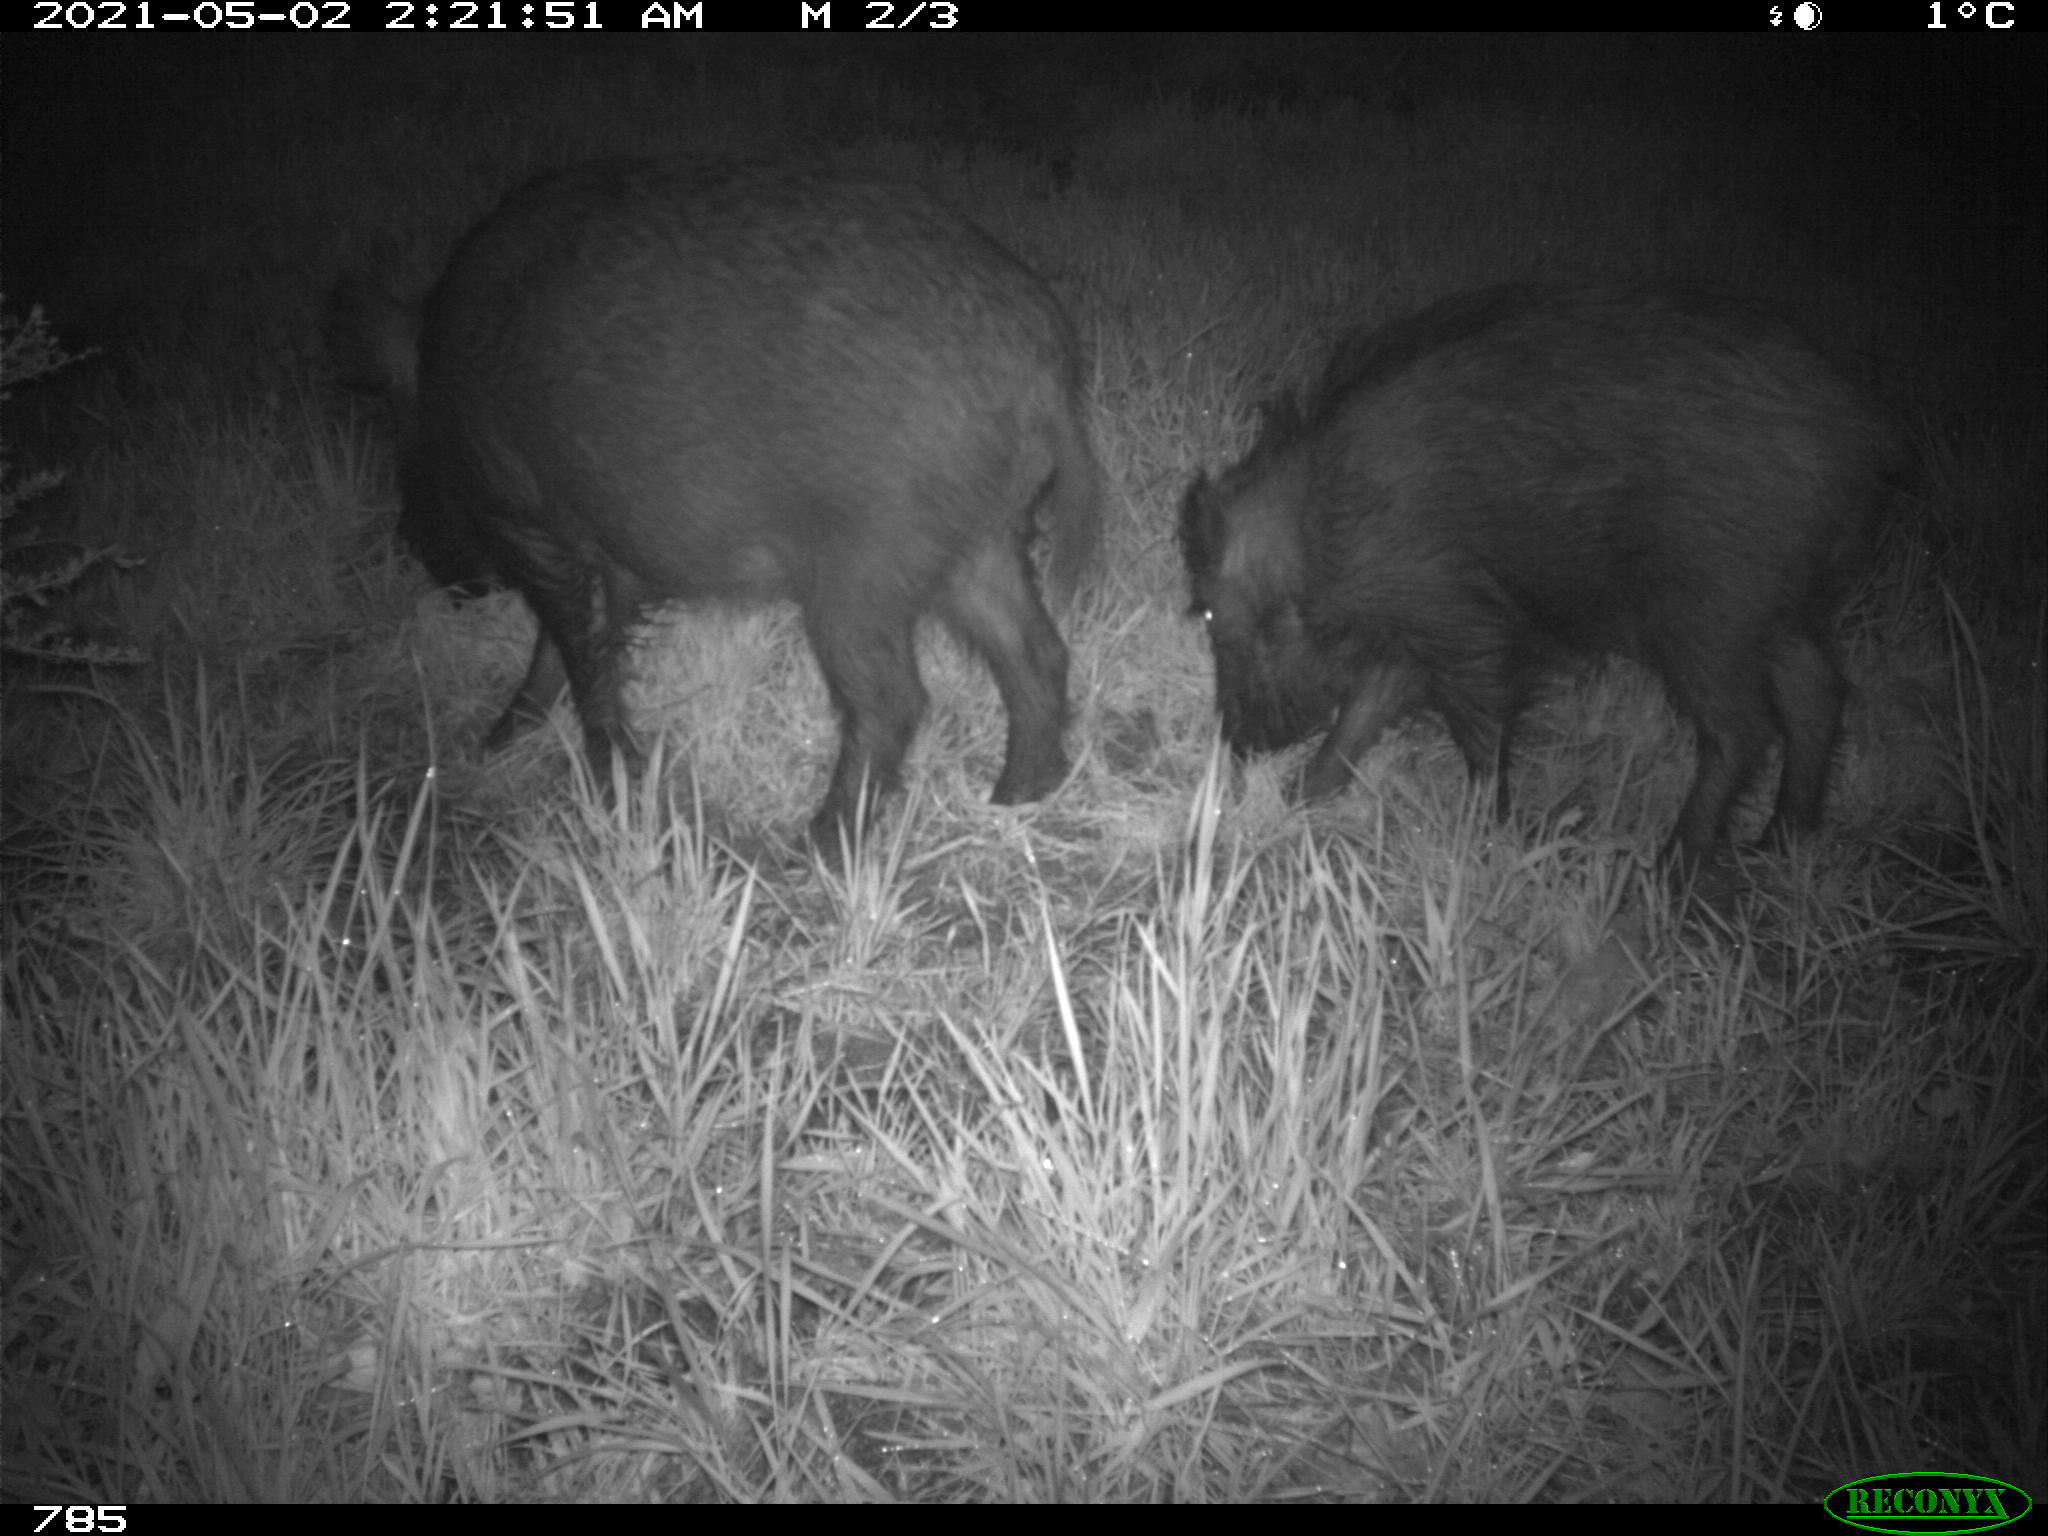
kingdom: Animalia
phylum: Chordata
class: Mammalia
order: Artiodactyla
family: Suidae
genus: Sus
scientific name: Sus scrofa
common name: Wild boar
